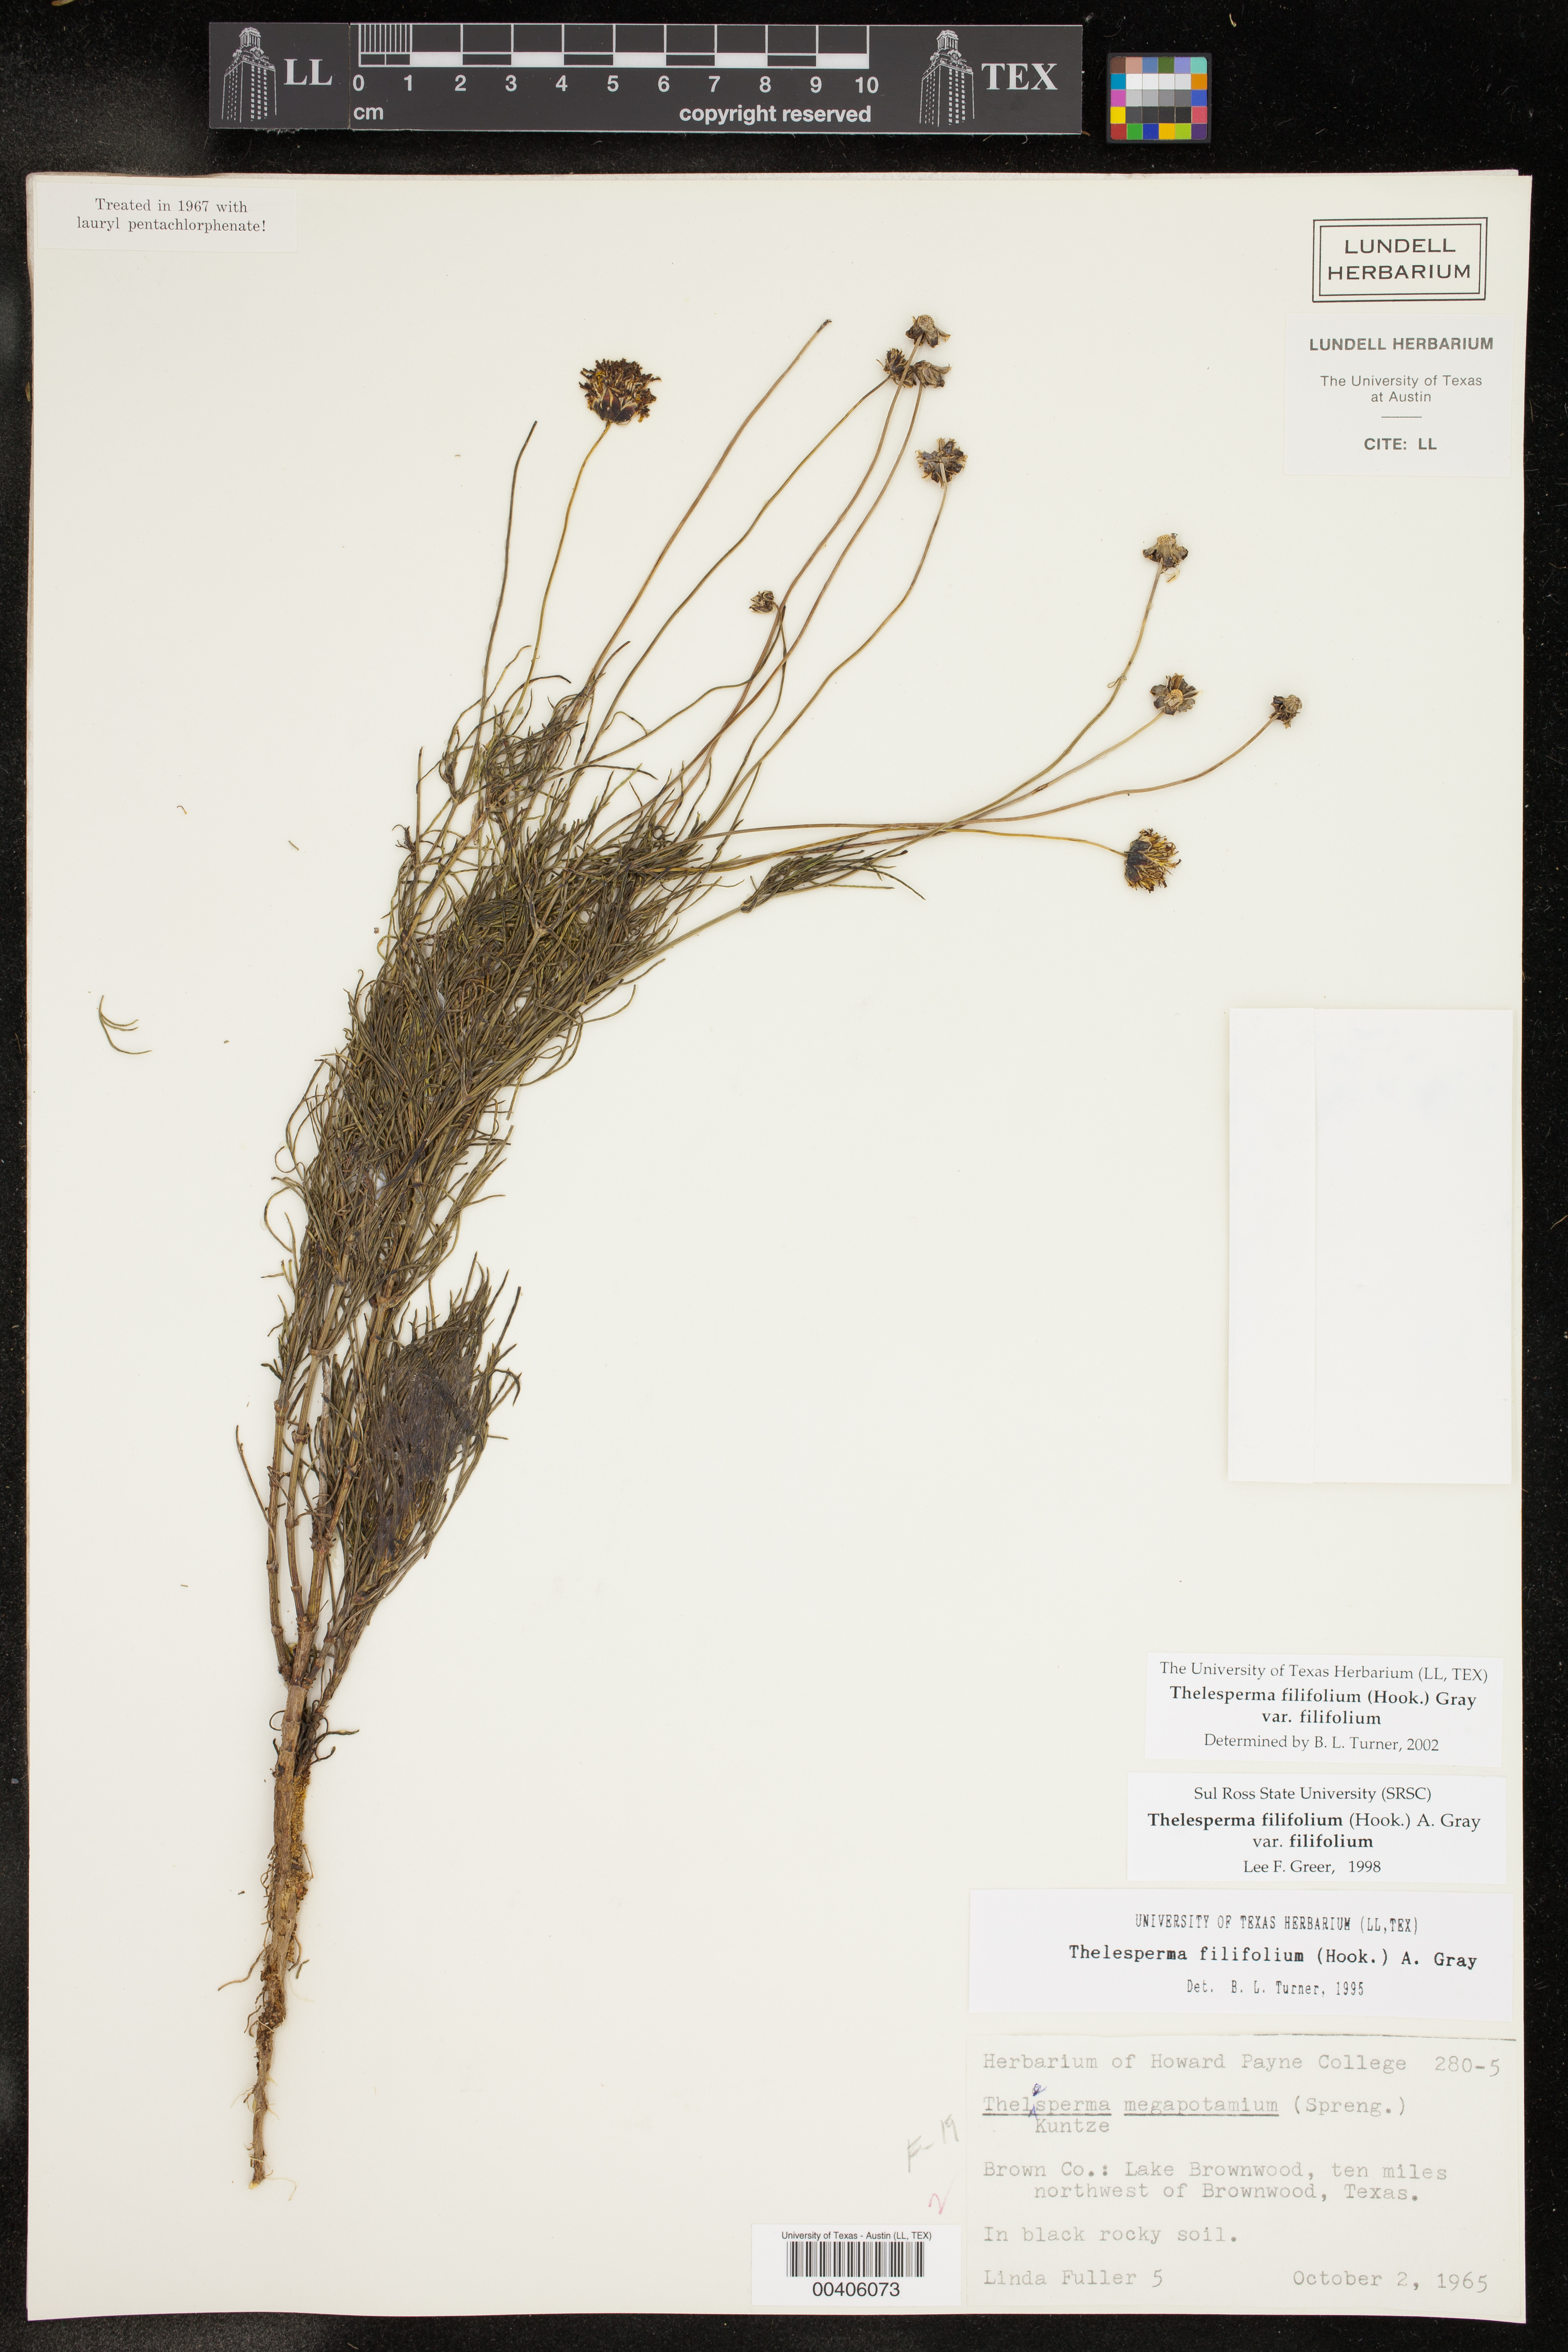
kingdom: Plantae
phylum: Tracheophyta
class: Magnoliopsida
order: Asterales
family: Asteraceae
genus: Thelesperma
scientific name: Thelesperma filifolium
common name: Stiff greenthread
